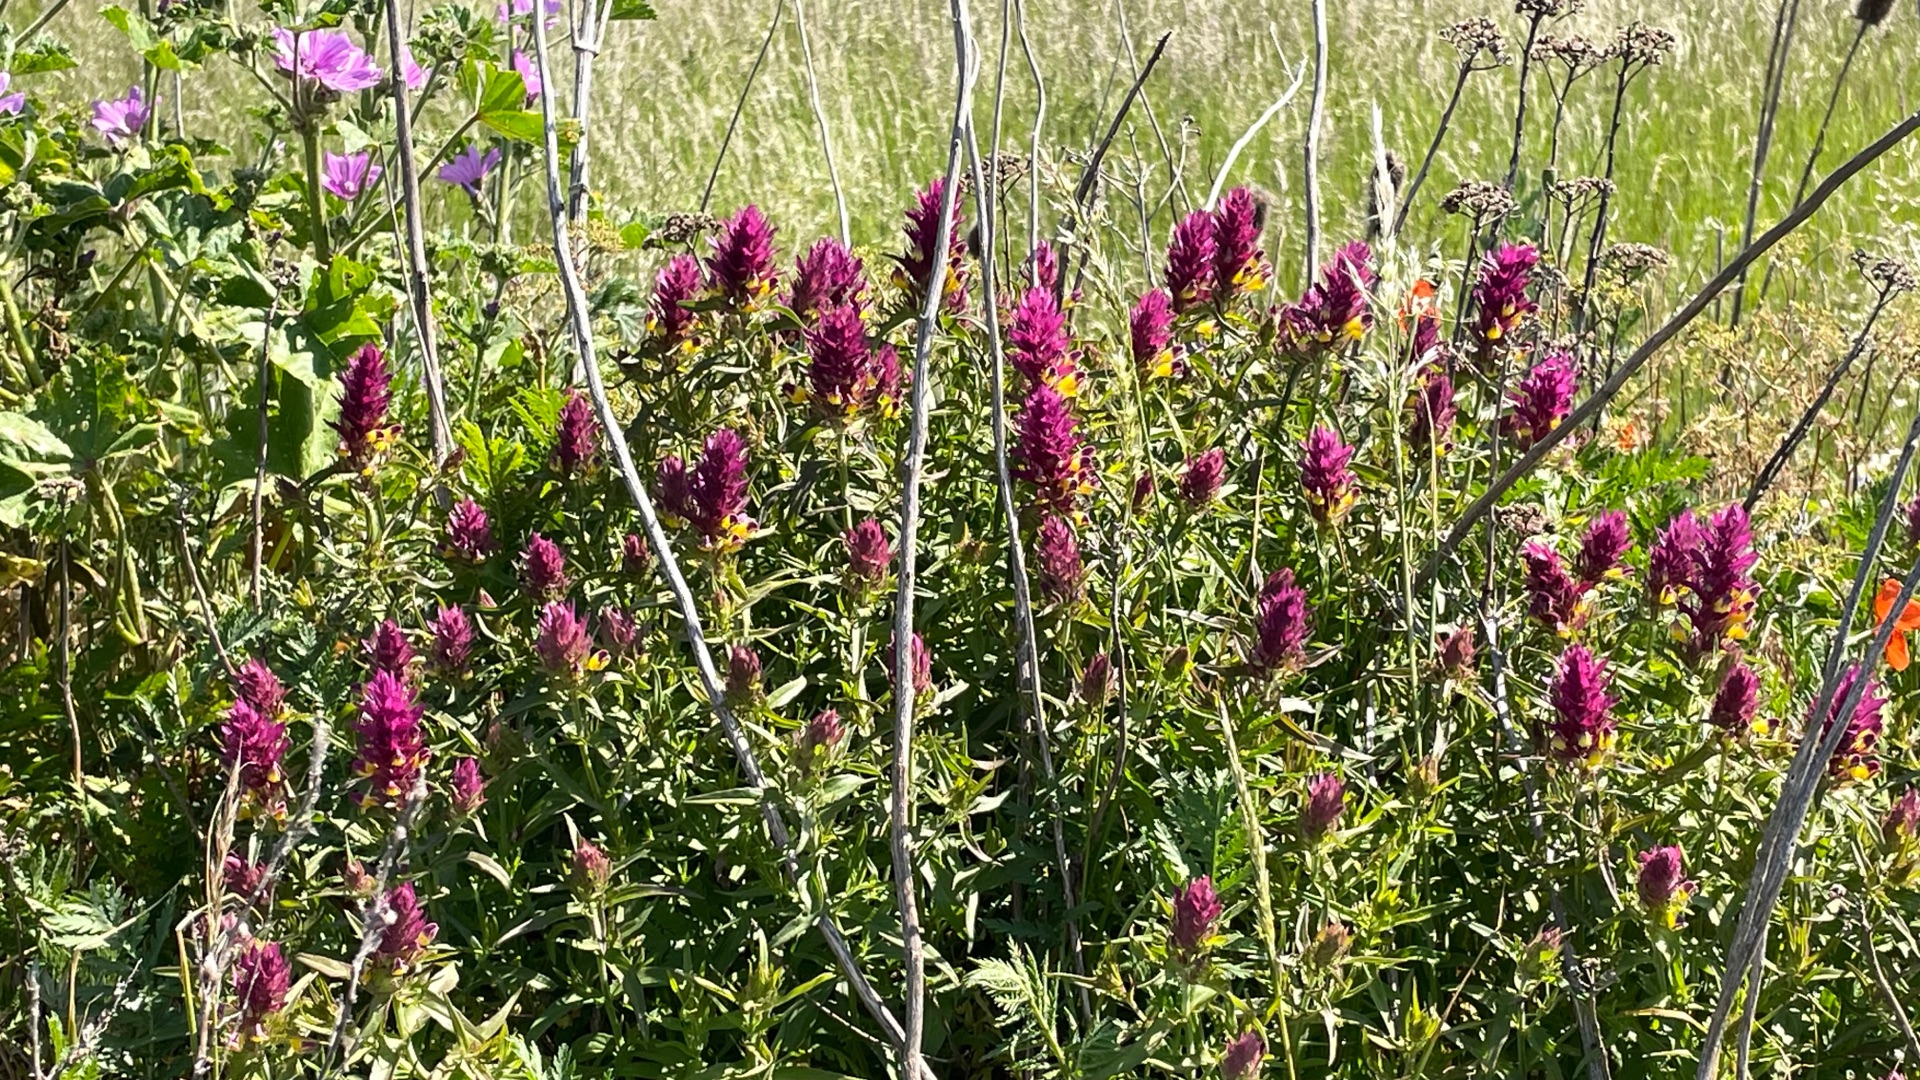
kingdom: Plantae
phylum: Tracheophyta
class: Magnoliopsida
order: Lamiales
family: Orobanchaceae
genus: Melampyrum
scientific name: Melampyrum arvense
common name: Ager-kohvede
